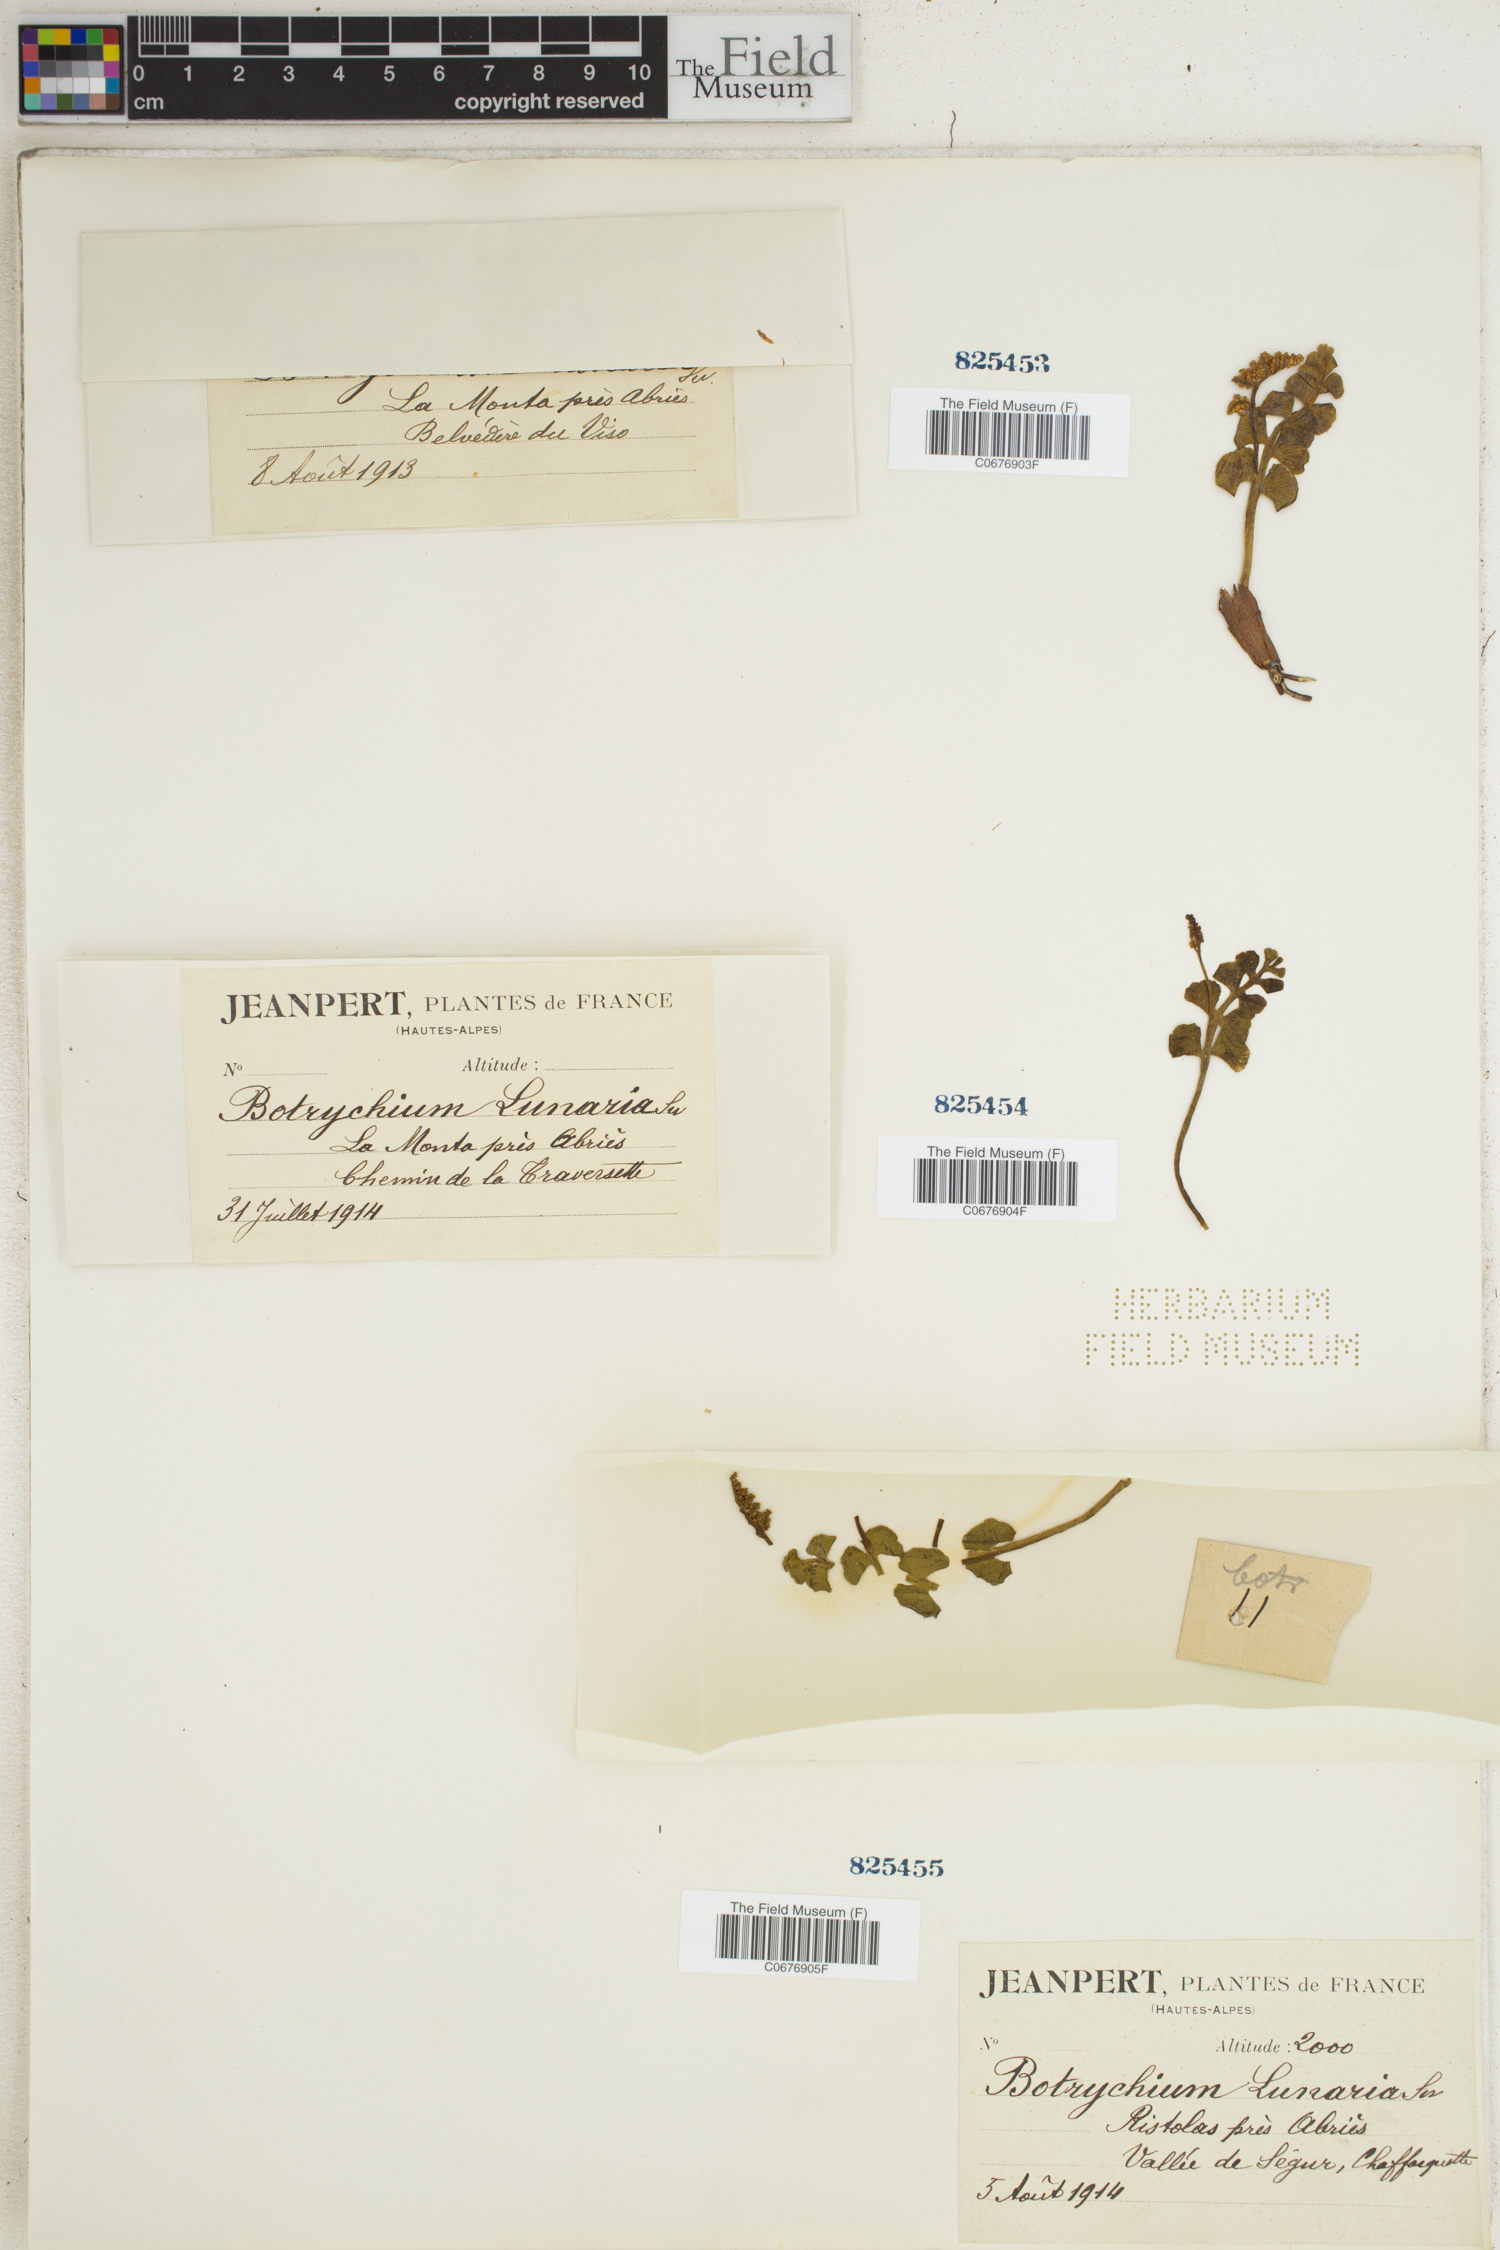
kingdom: Plantae
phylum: Tracheophyta
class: Polypodiopsida
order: Ophioglossales
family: Ophioglossaceae
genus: Botrychium
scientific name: Botrychium lunaria
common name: Moonwort
